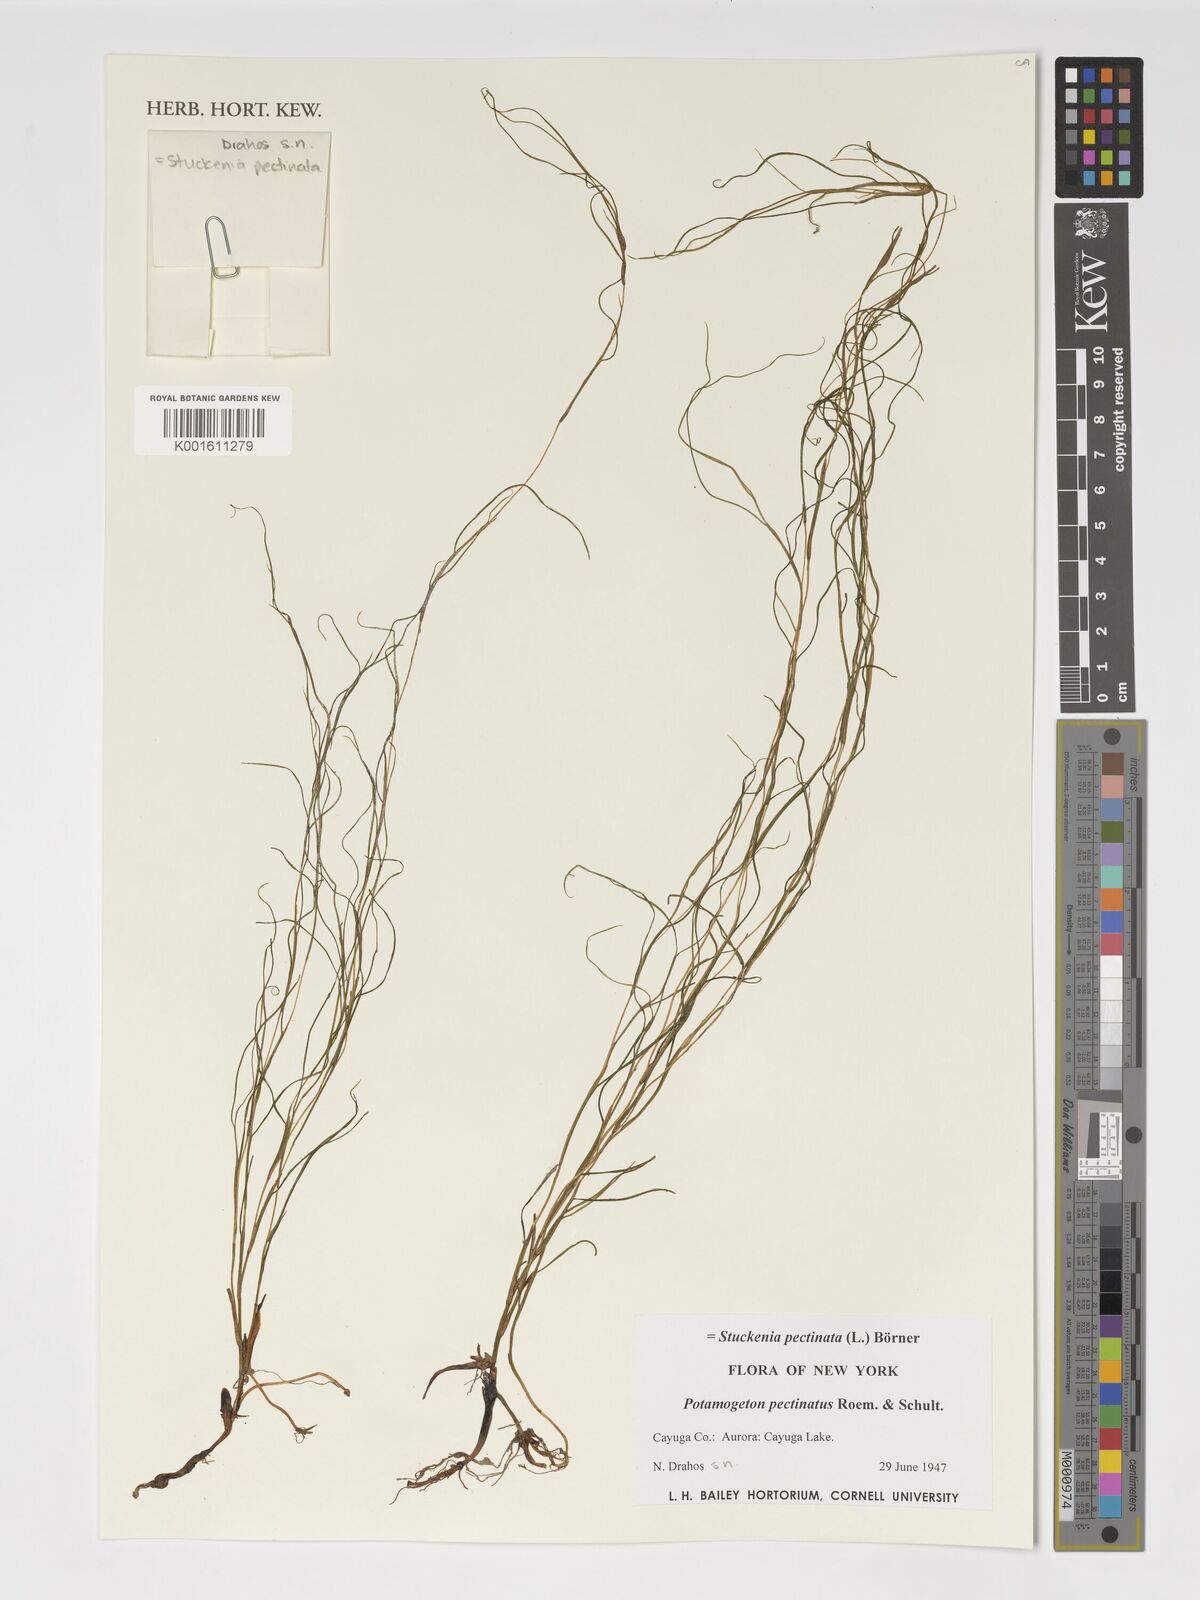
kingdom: Plantae
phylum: Tracheophyta
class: Liliopsida
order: Alismatales
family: Potamogetonaceae
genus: Stuckenia
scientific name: Stuckenia pectinata
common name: Sago pondweed
